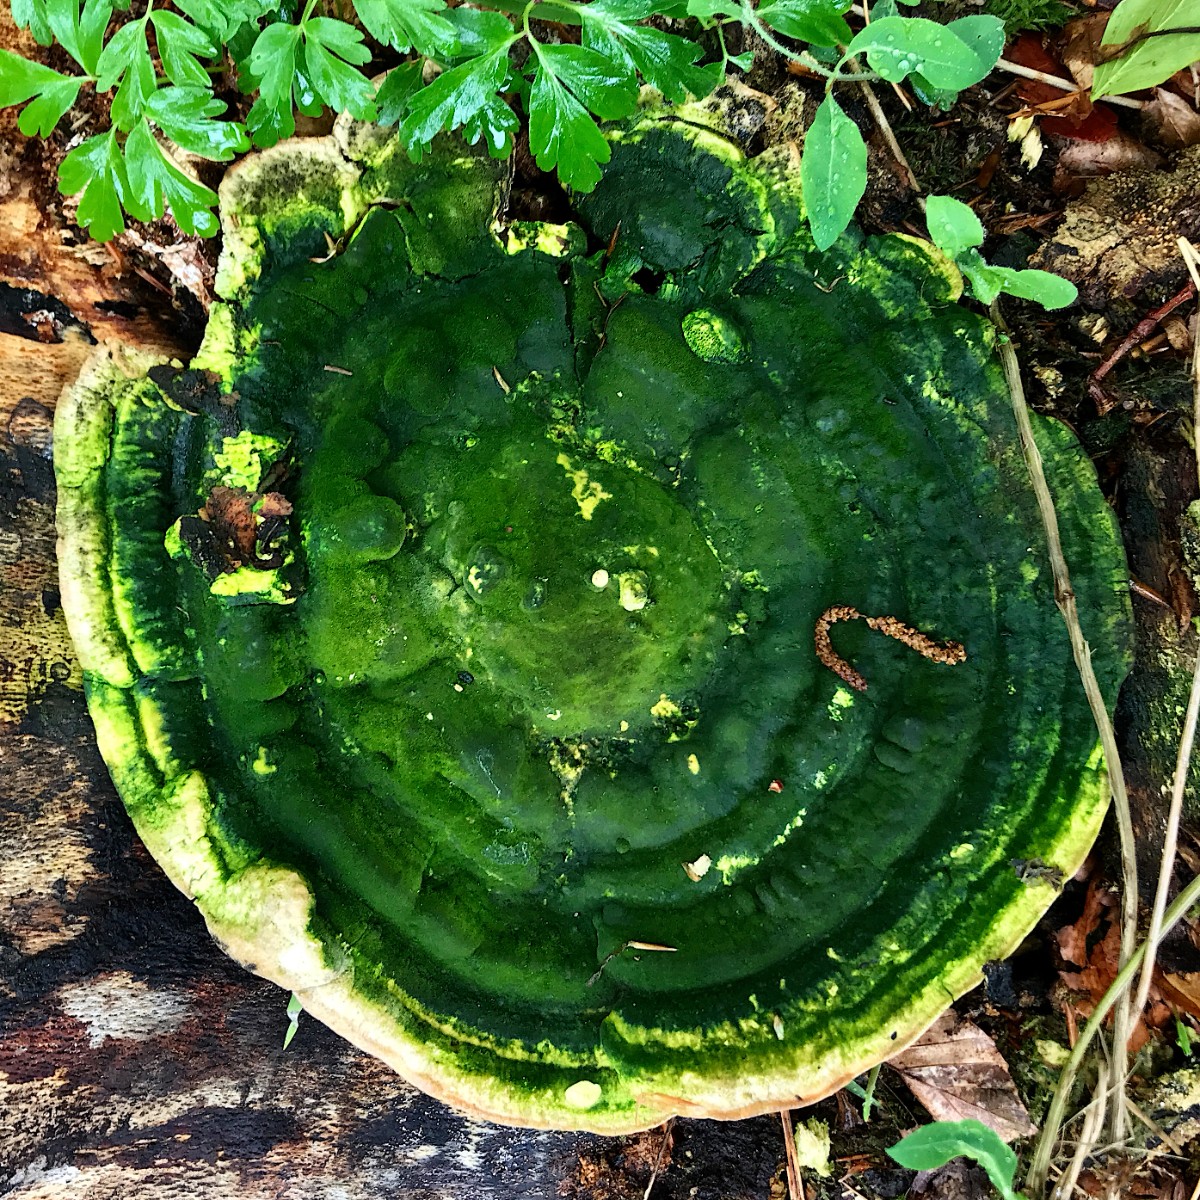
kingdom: Fungi
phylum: Basidiomycota
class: Agaricomycetes
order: Polyporales
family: Polyporaceae
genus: Trametes
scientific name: Trametes gibbosa
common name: puklet læderporesvamp
